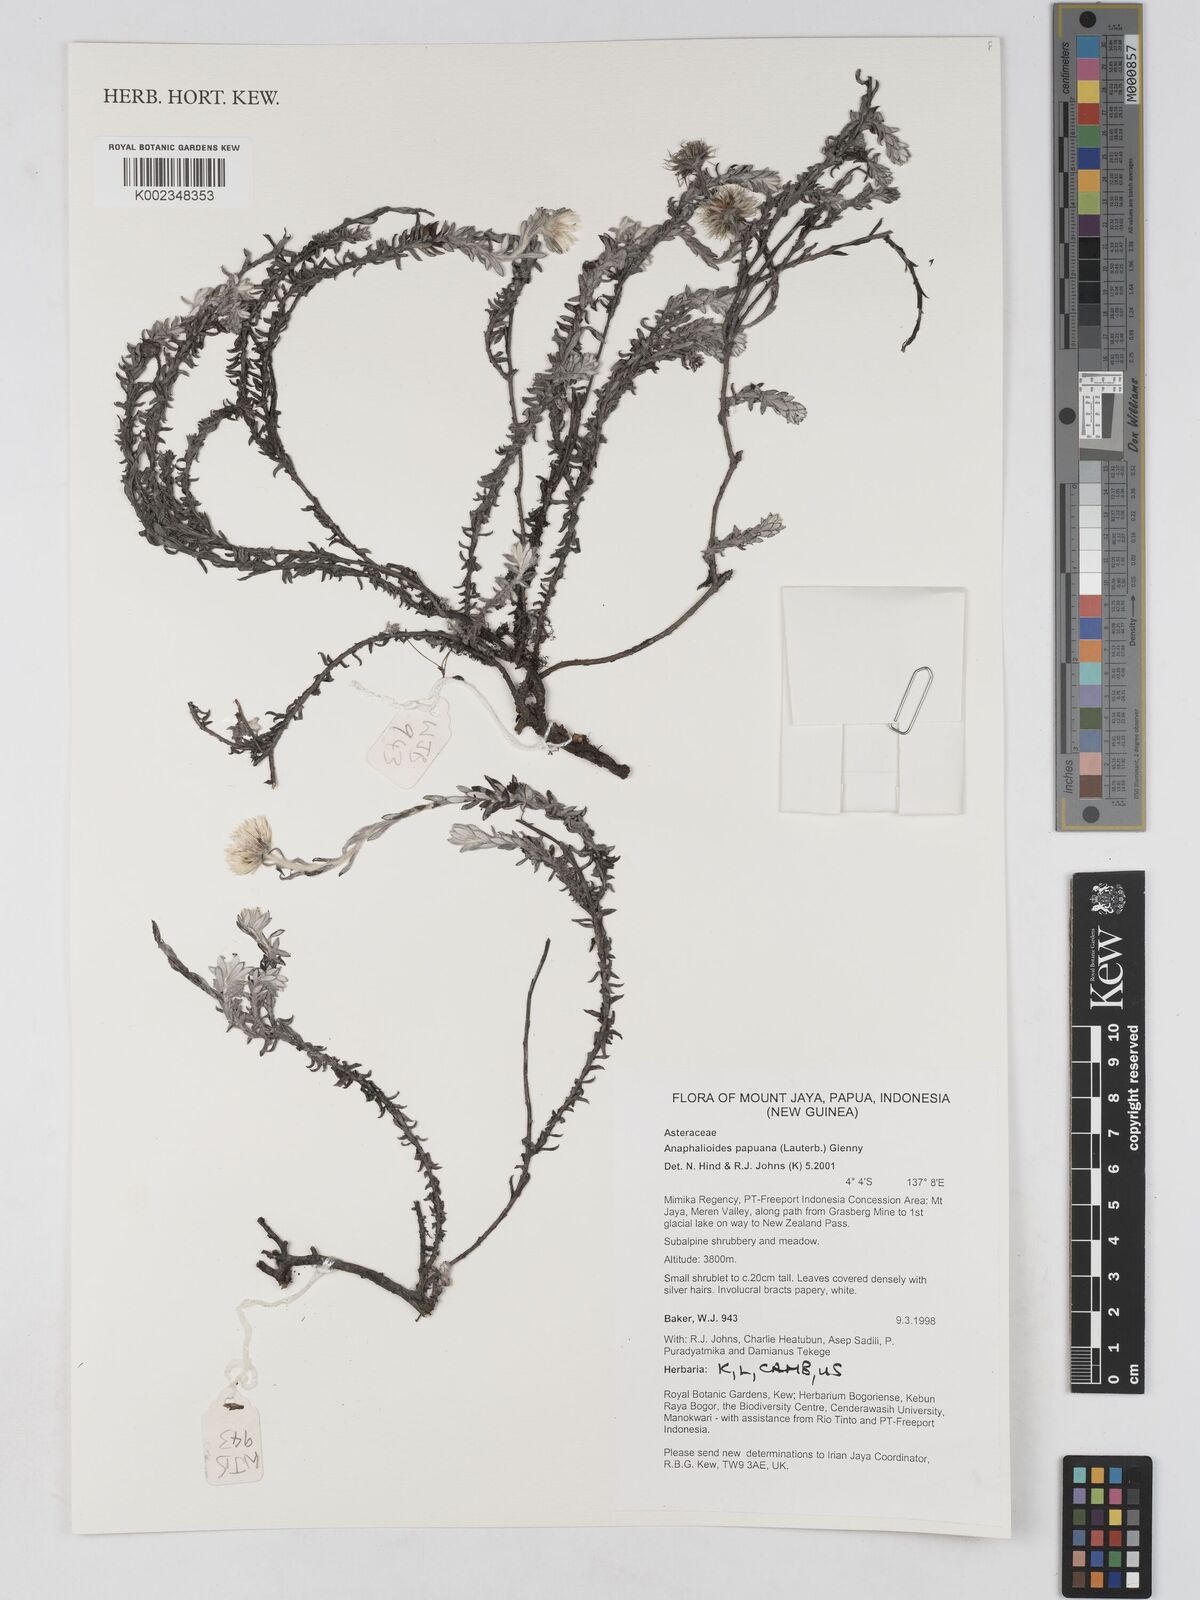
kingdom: Plantae
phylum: Tracheophyta
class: Magnoliopsida
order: Asterales
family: Asteraceae
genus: Anaphalioides
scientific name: Anaphalioides papuana
